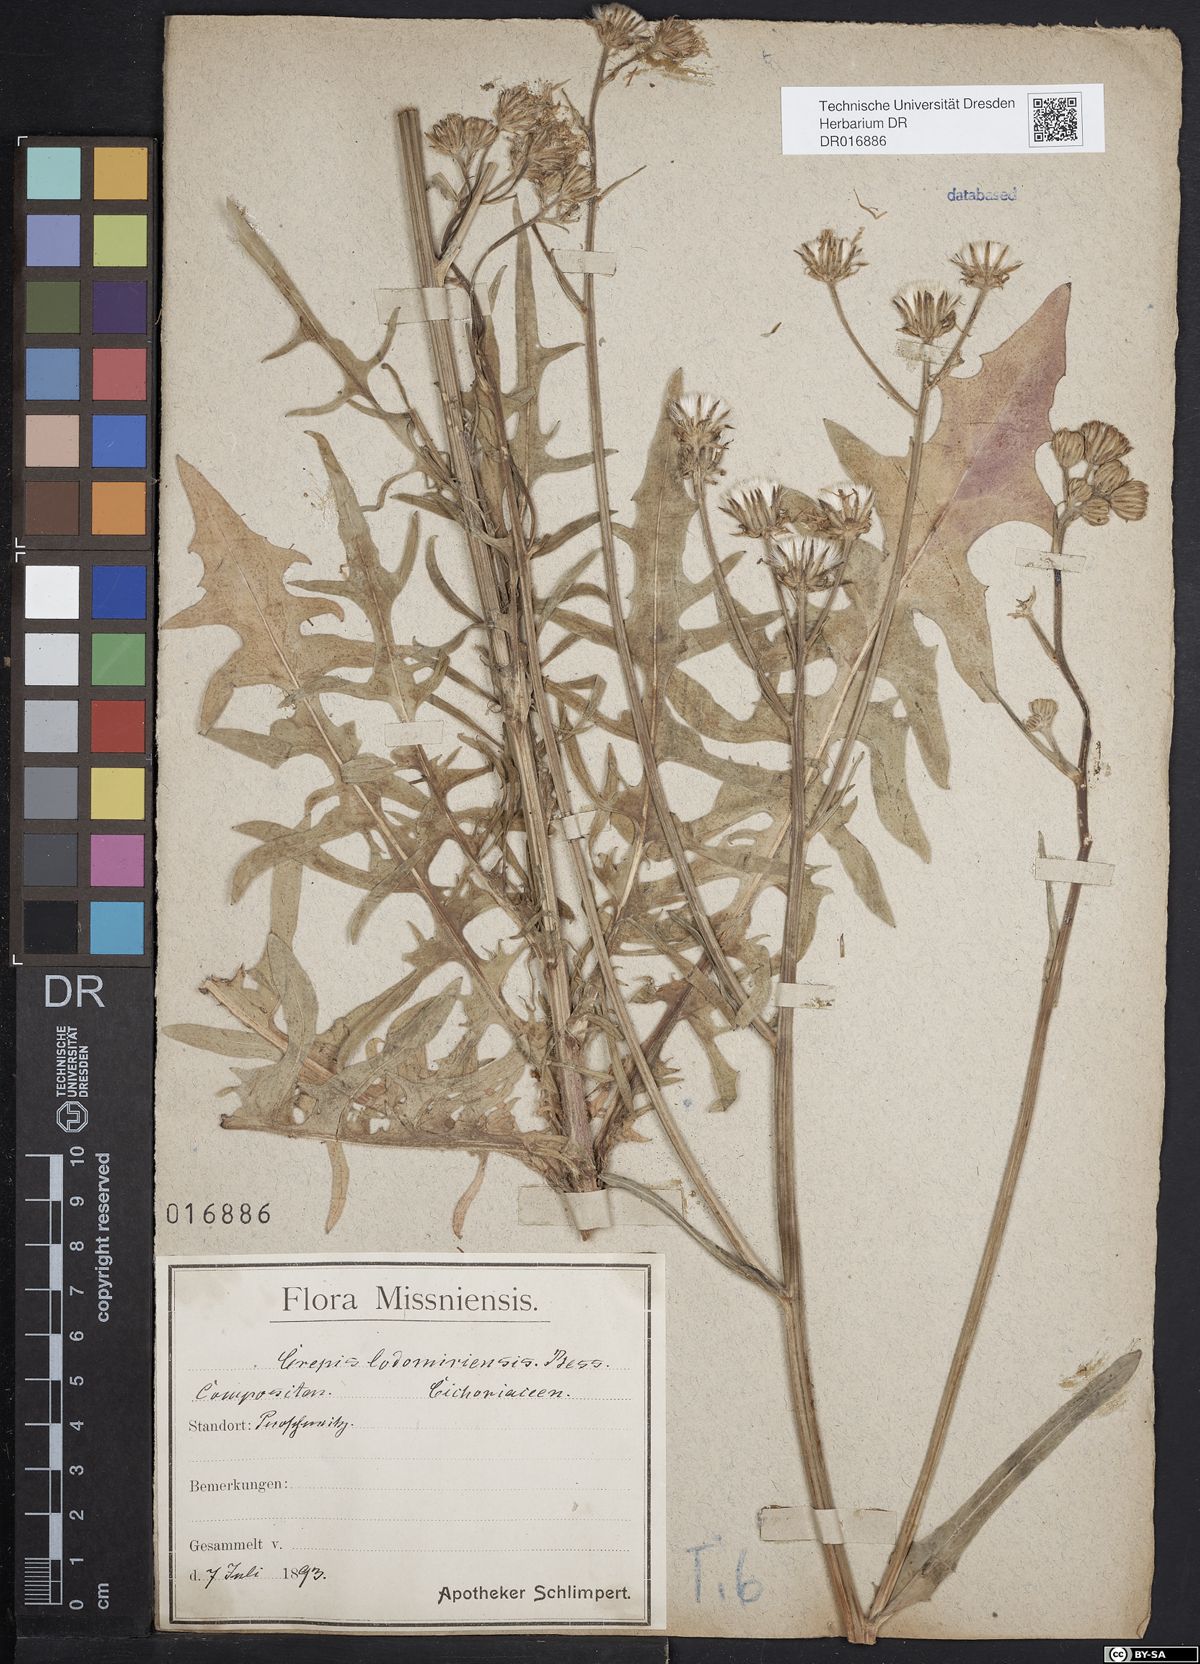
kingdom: Plantae
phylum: Tracheophyta
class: Magnoliopsida
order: Asterales
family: Asteraceae
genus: Crepis
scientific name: Crepis biennis
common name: Rough hawk's-beard
